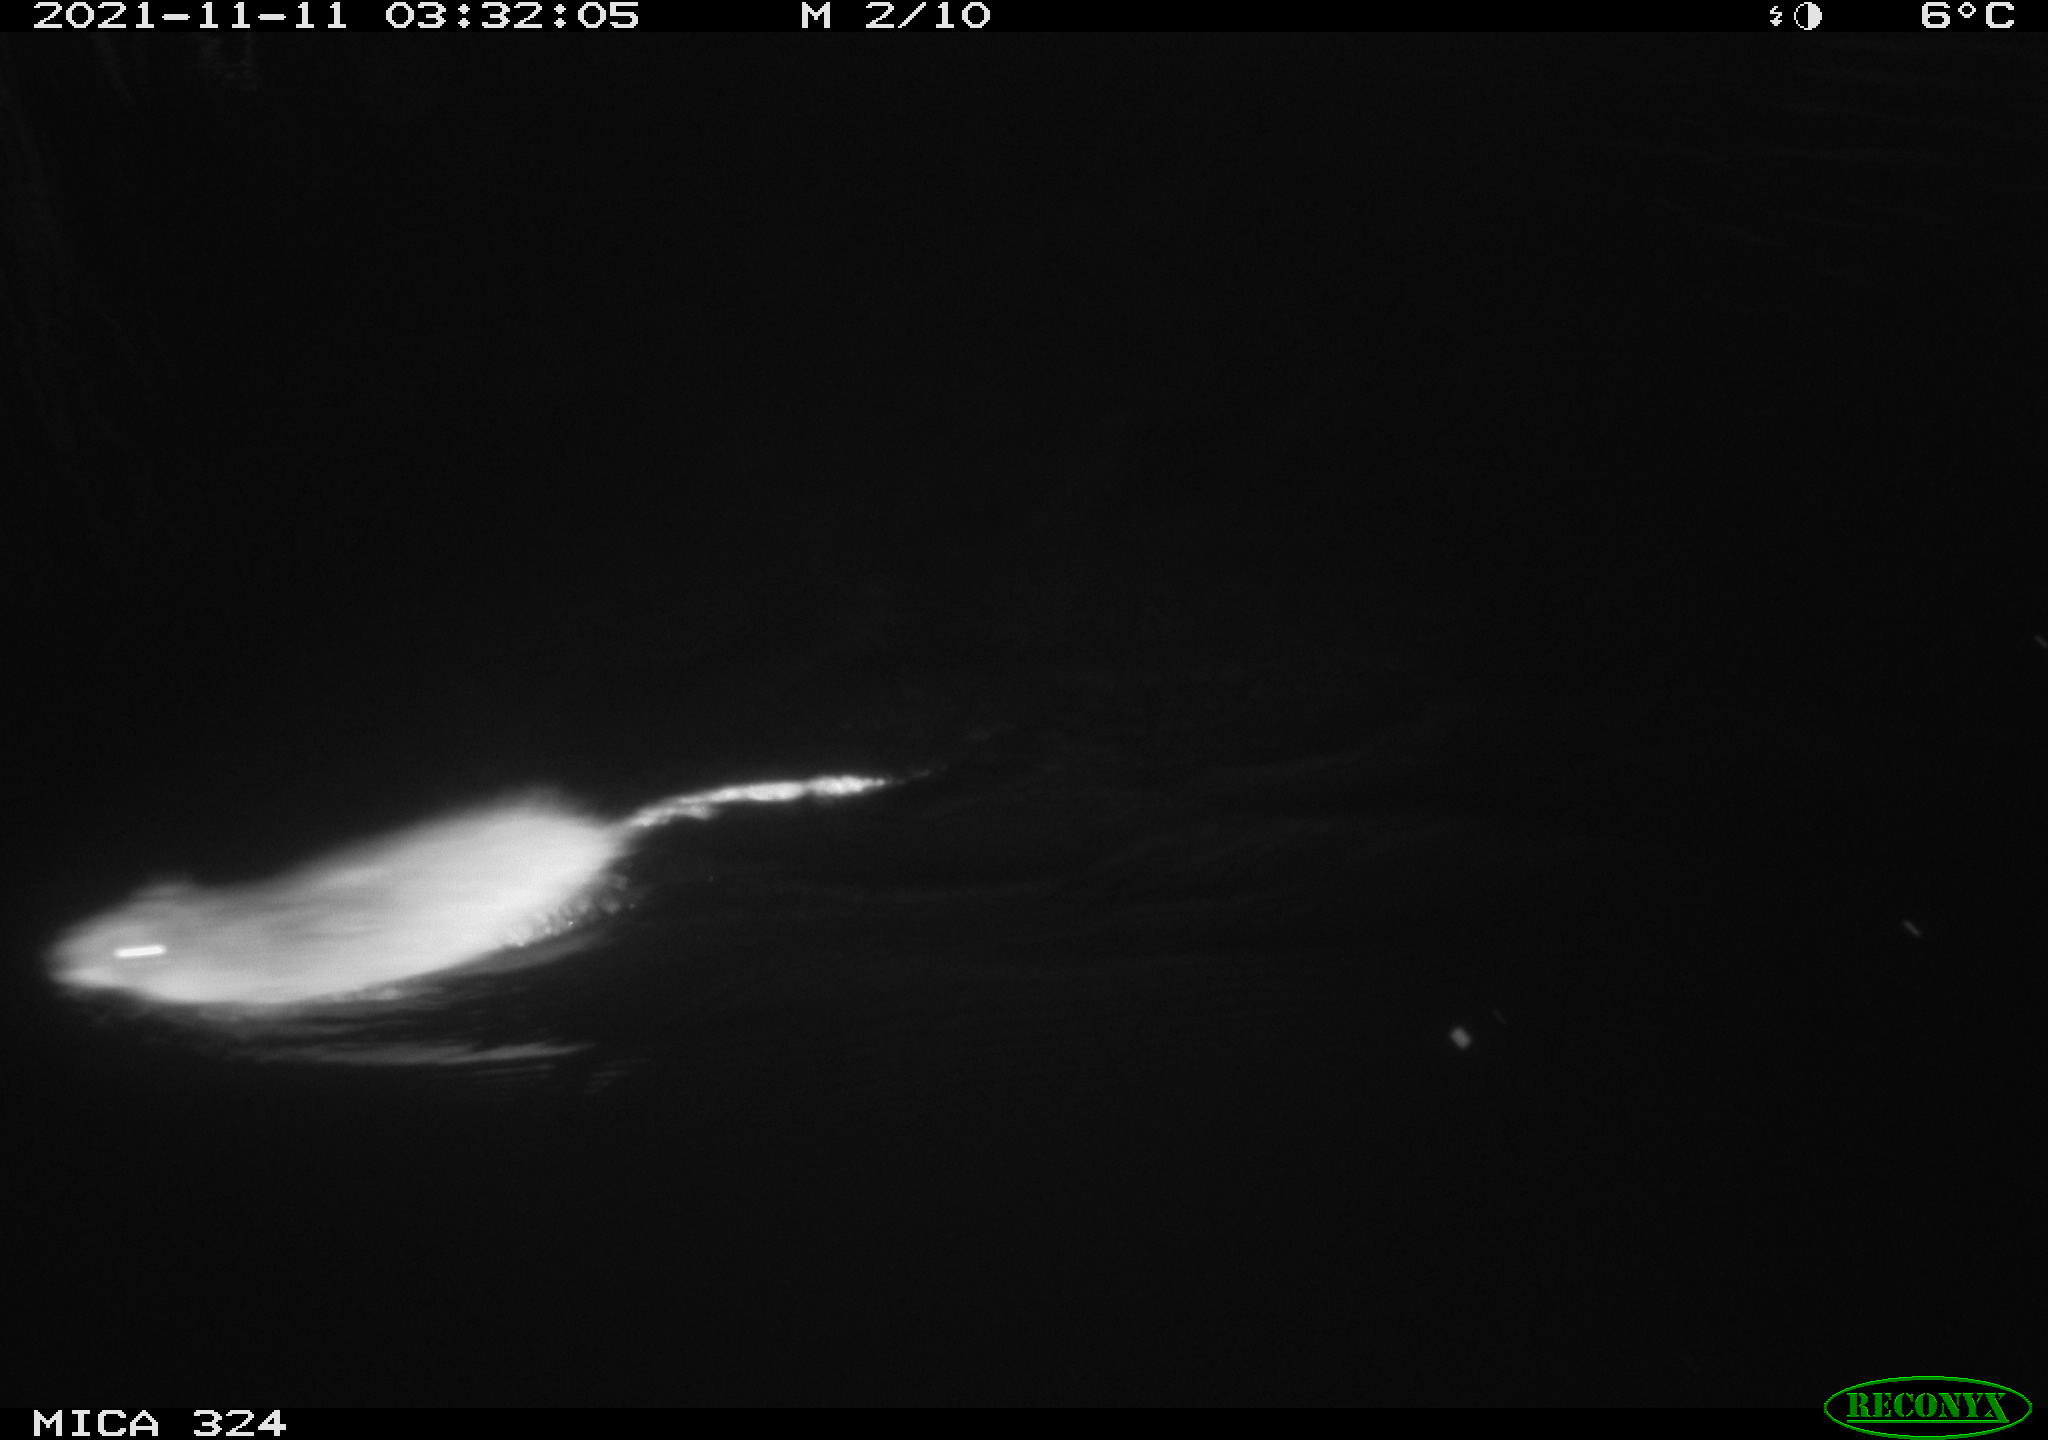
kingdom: Animalia
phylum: Chordata
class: Mammalia
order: Rodentia
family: Cricetidae
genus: Ondatra
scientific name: Ondatra zibethicus
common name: Muskrat
